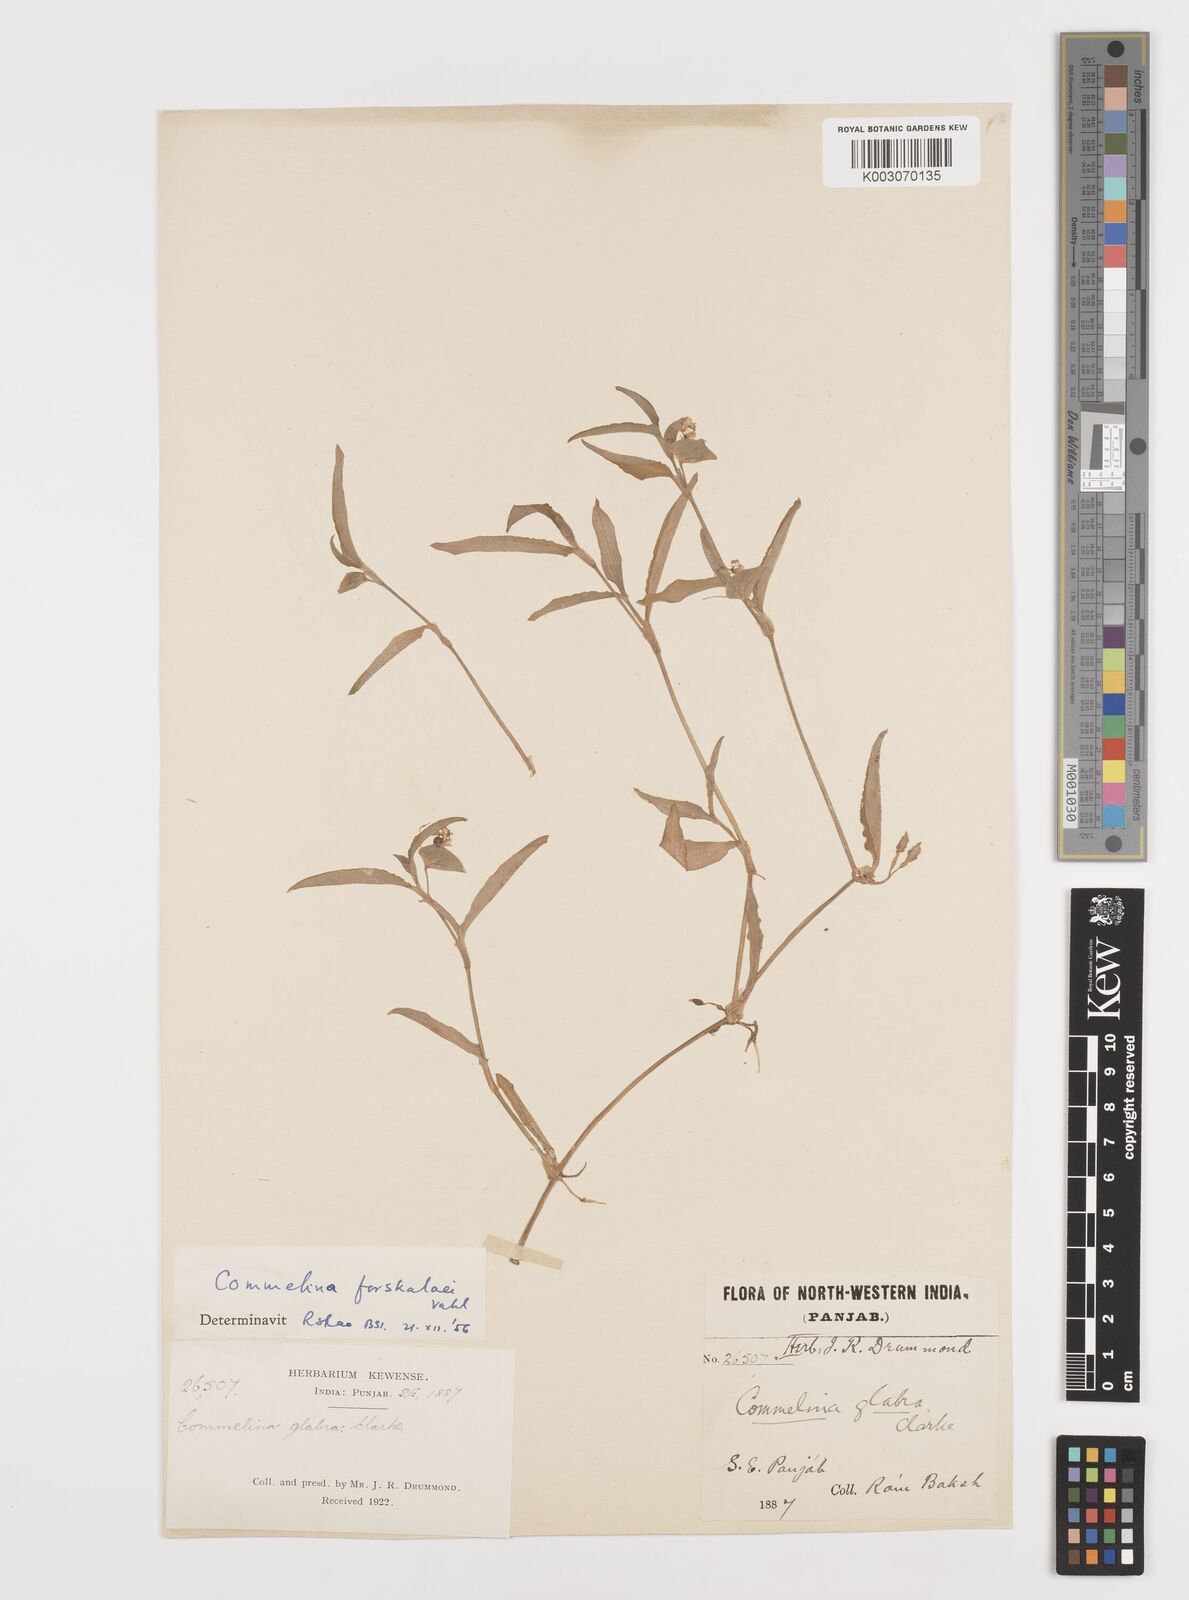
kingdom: Plantae
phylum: Tracheophyta
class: Liliopsida
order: Commelinales
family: Commelinaceae
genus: Commelina
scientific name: Commelina forskaolii
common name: Rat's ear
